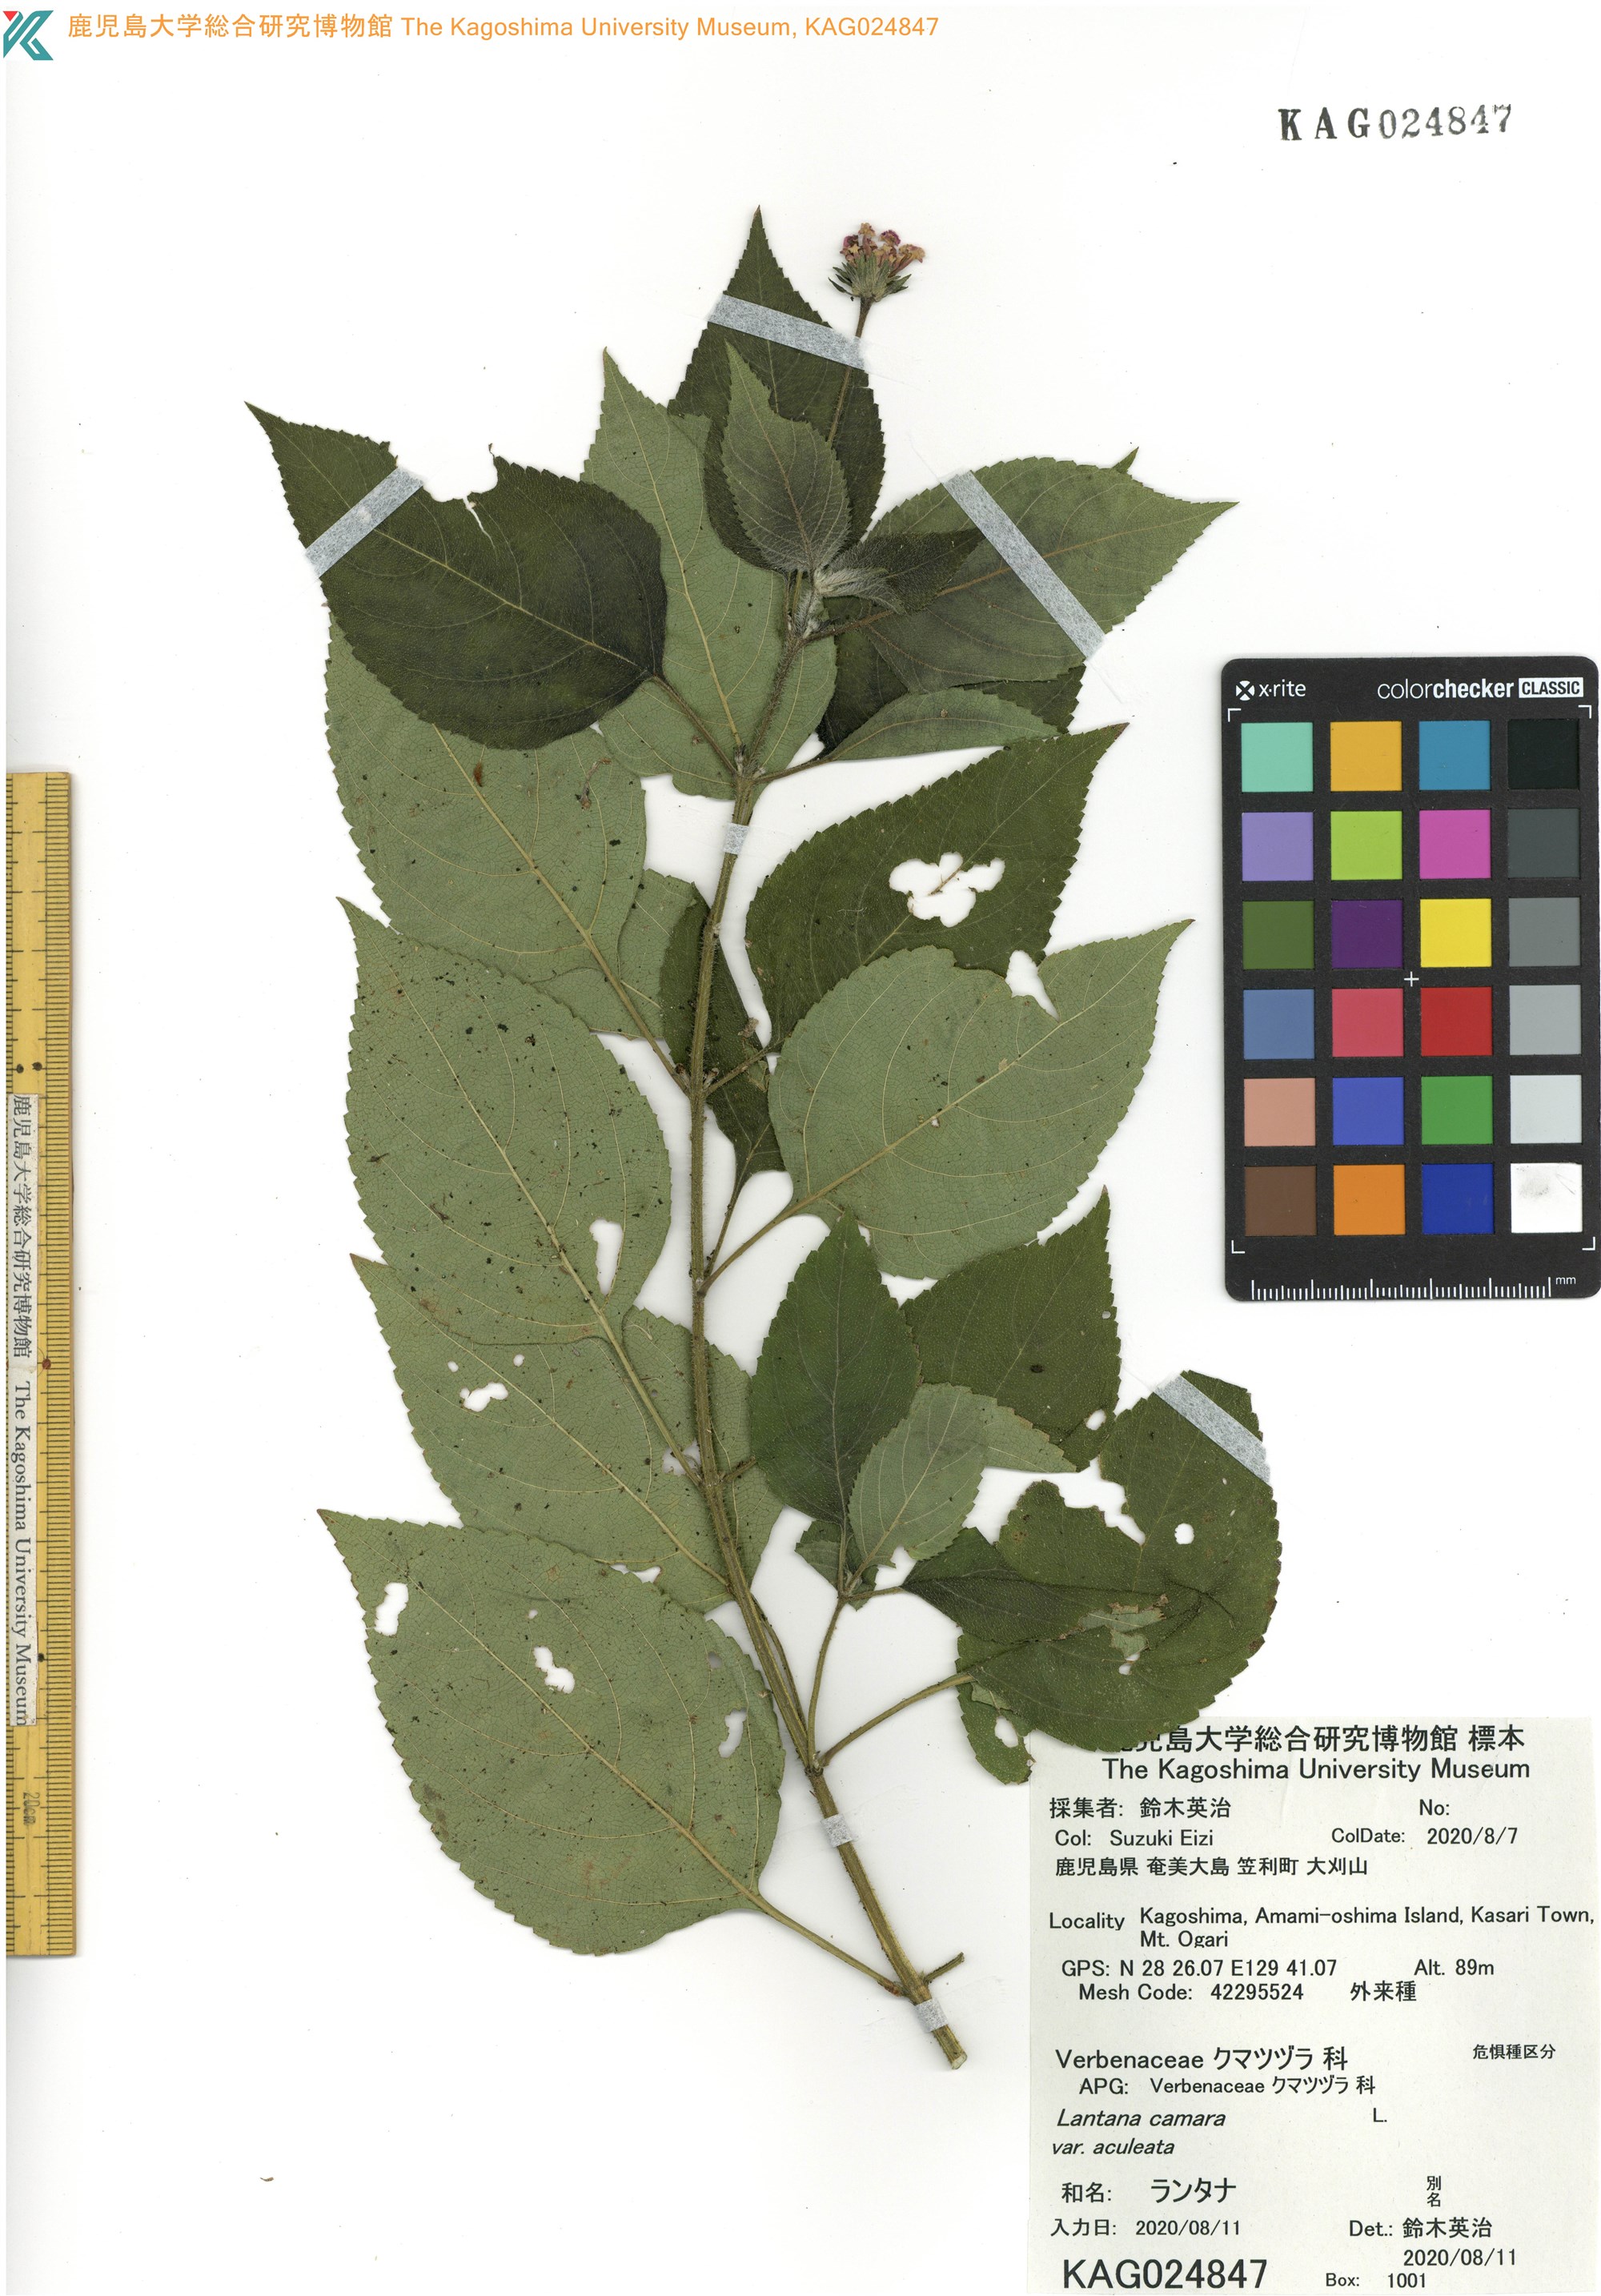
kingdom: Plantae
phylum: Tracheophyta
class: Magnoliopsida
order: Lamiales
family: Verbenaceae
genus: Lantana
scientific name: Lantana camara
